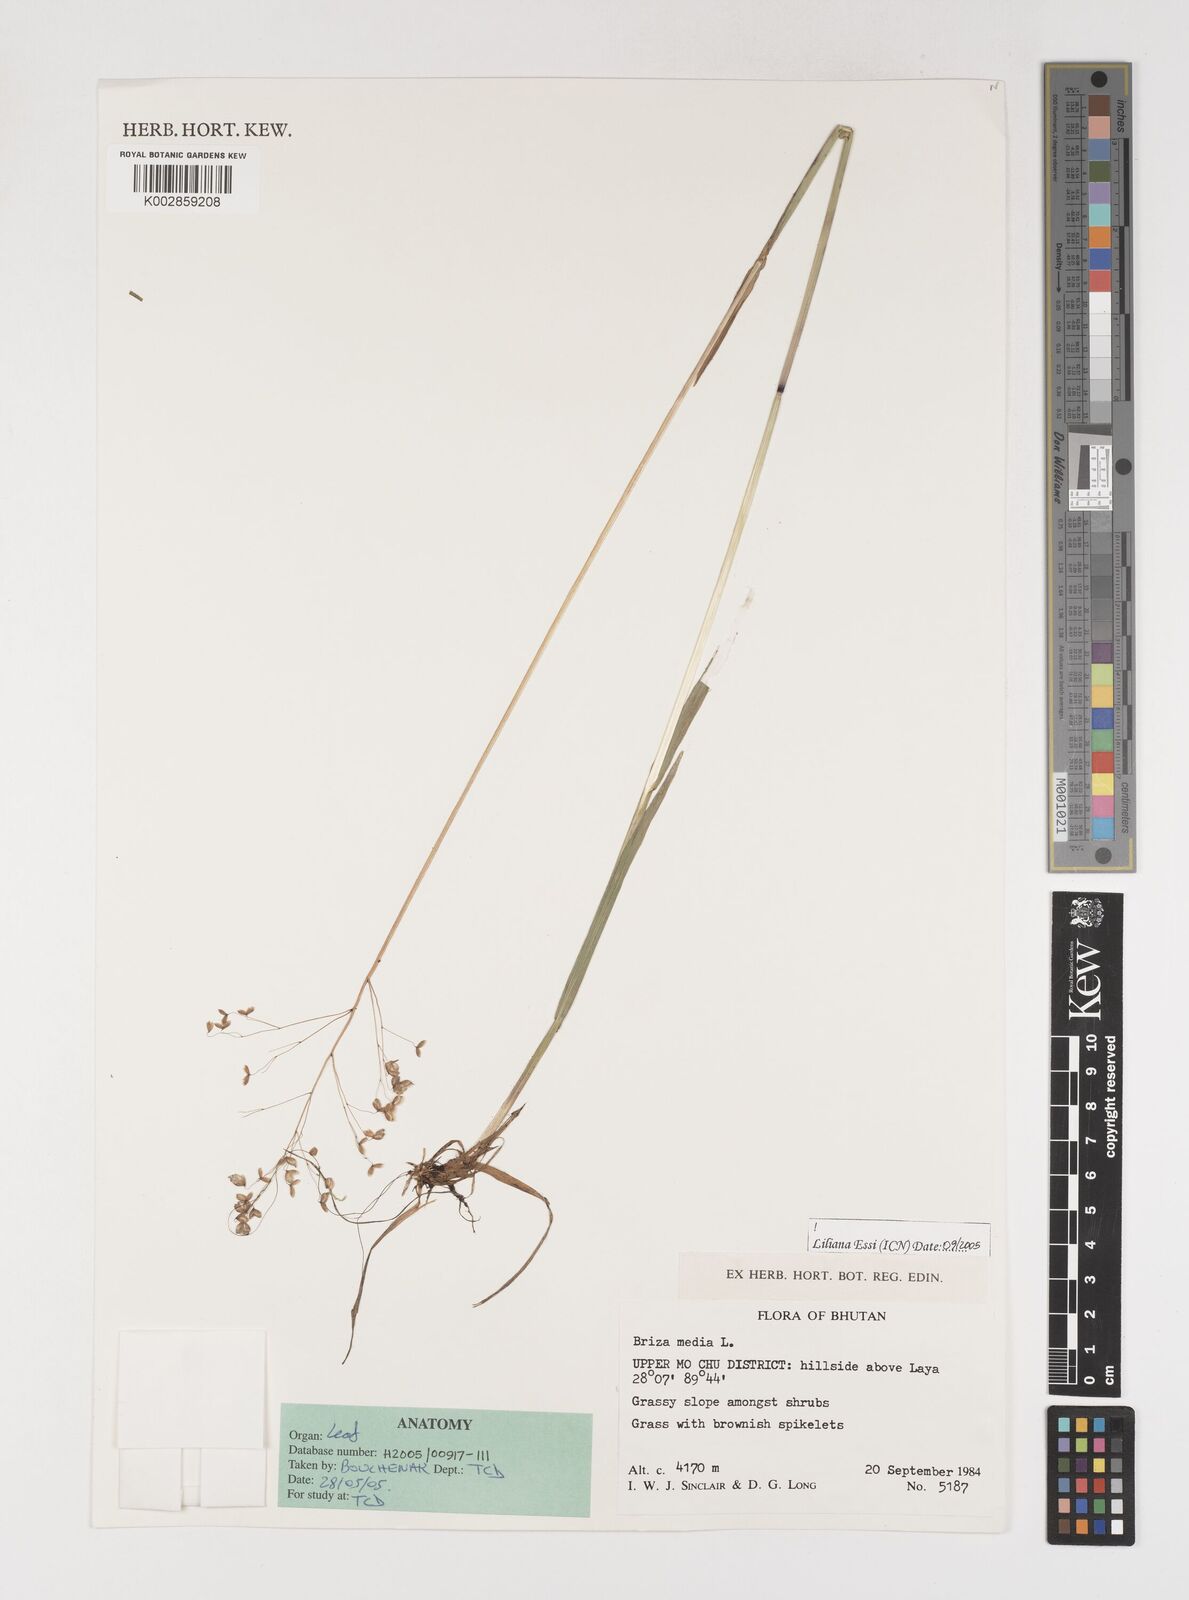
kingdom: Plantae
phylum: Tracheophyta
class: Liliopsida
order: Poales
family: Poaceae
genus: Briza
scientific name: Briza media
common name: Quaking grass
